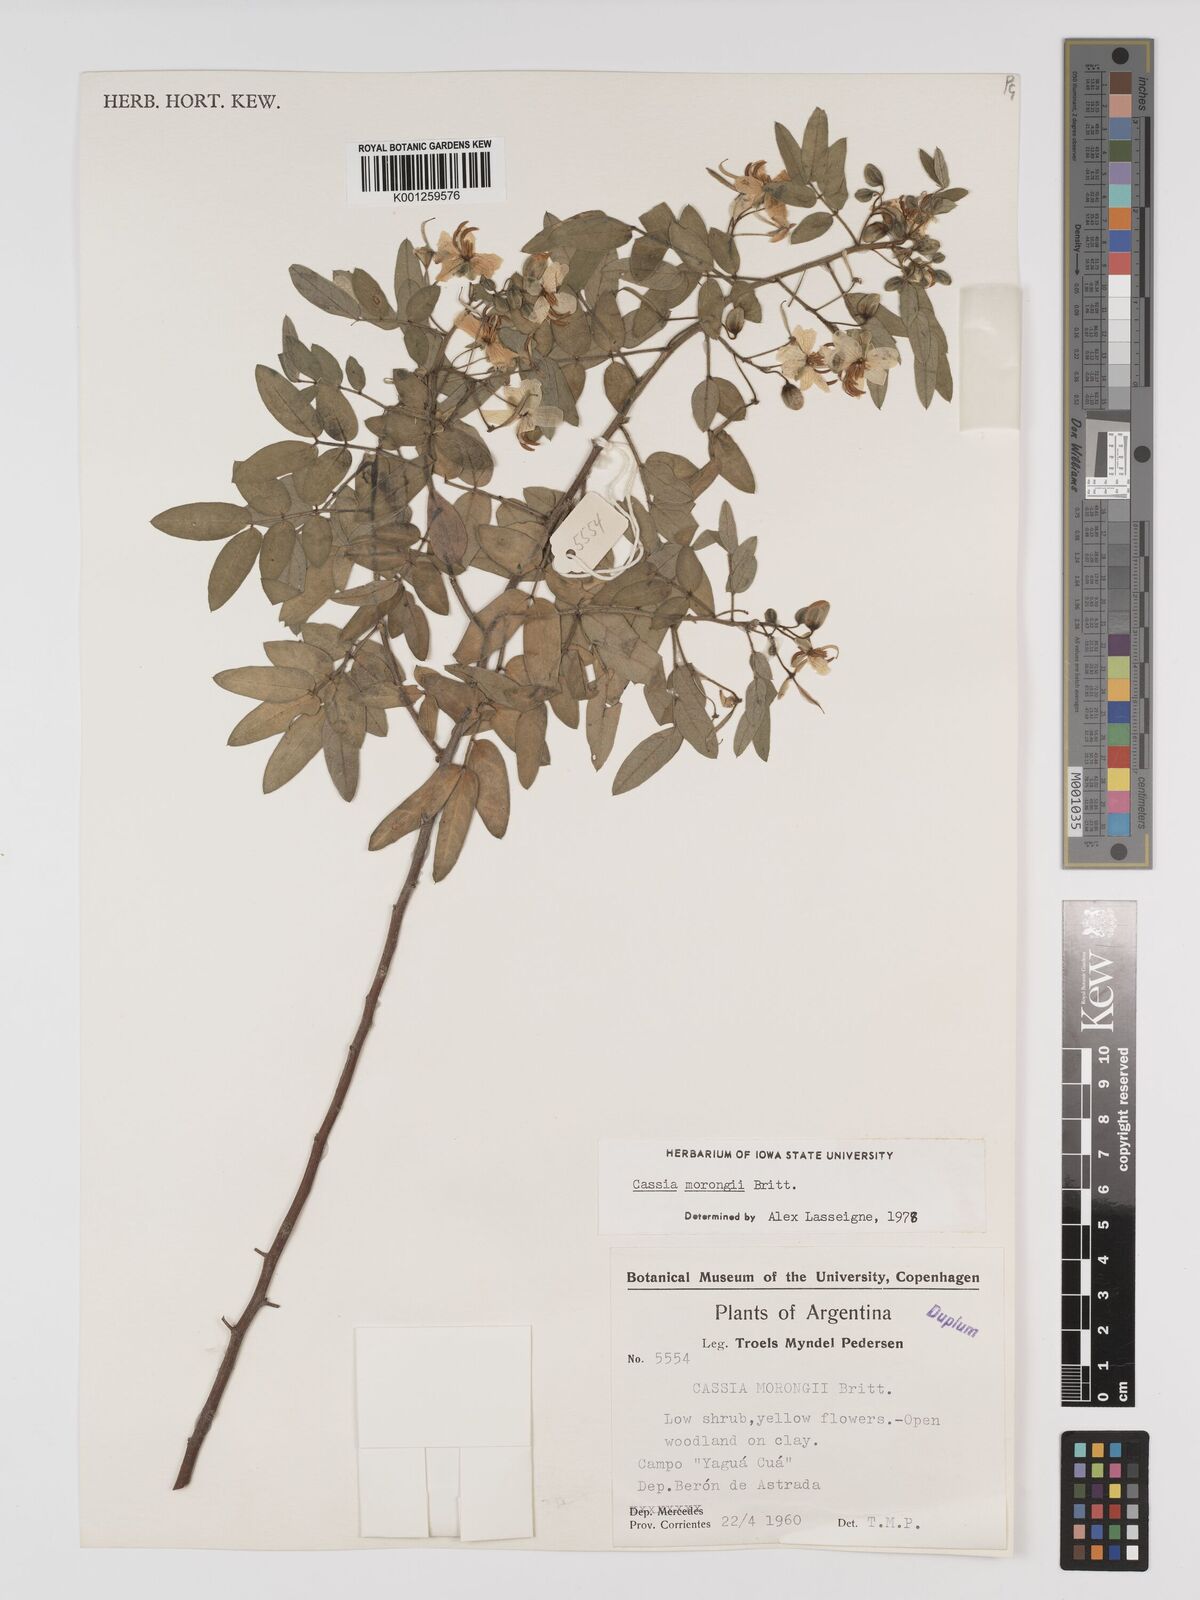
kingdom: Plantae
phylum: Tracheophyta
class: Magnoliopsida
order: Fabales
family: Fabaceae
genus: Senna
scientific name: Senna morongii
